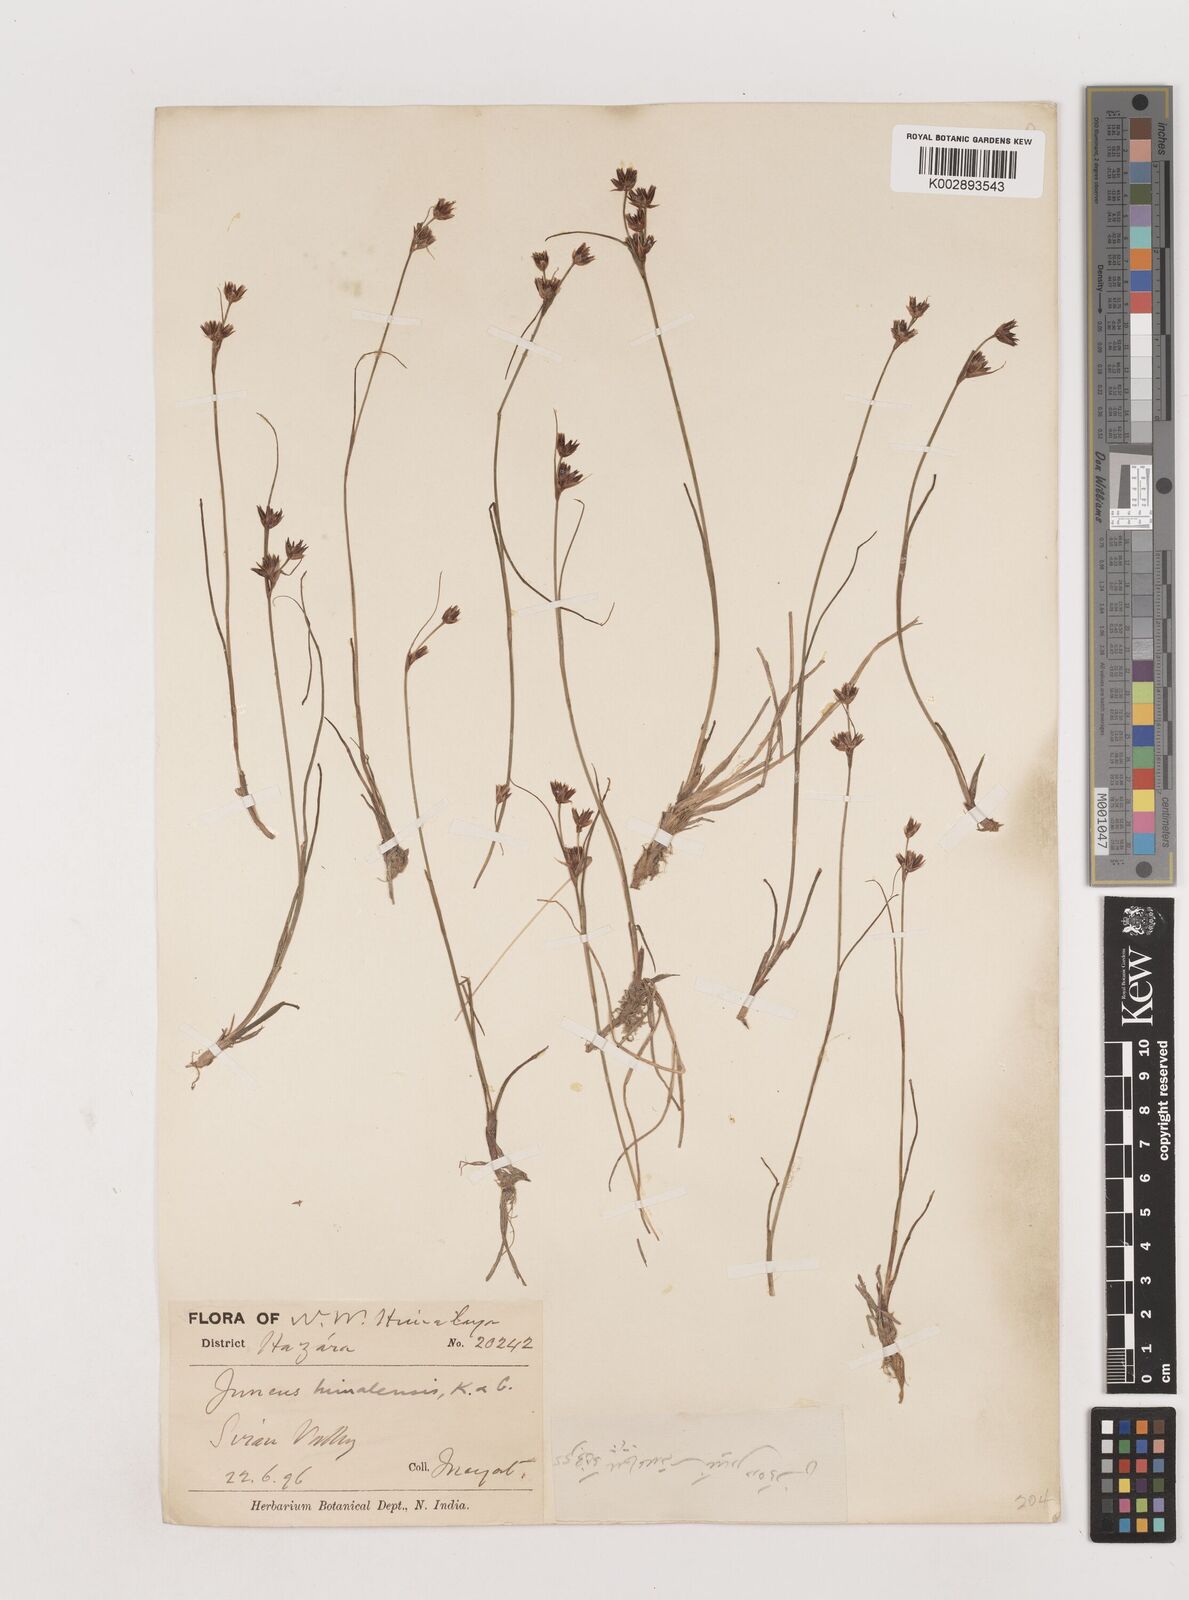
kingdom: Plantae
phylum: Tracheophyta
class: Liliopsida
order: Poales
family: Juncaceae
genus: Juncus
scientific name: Juncus himalensis
